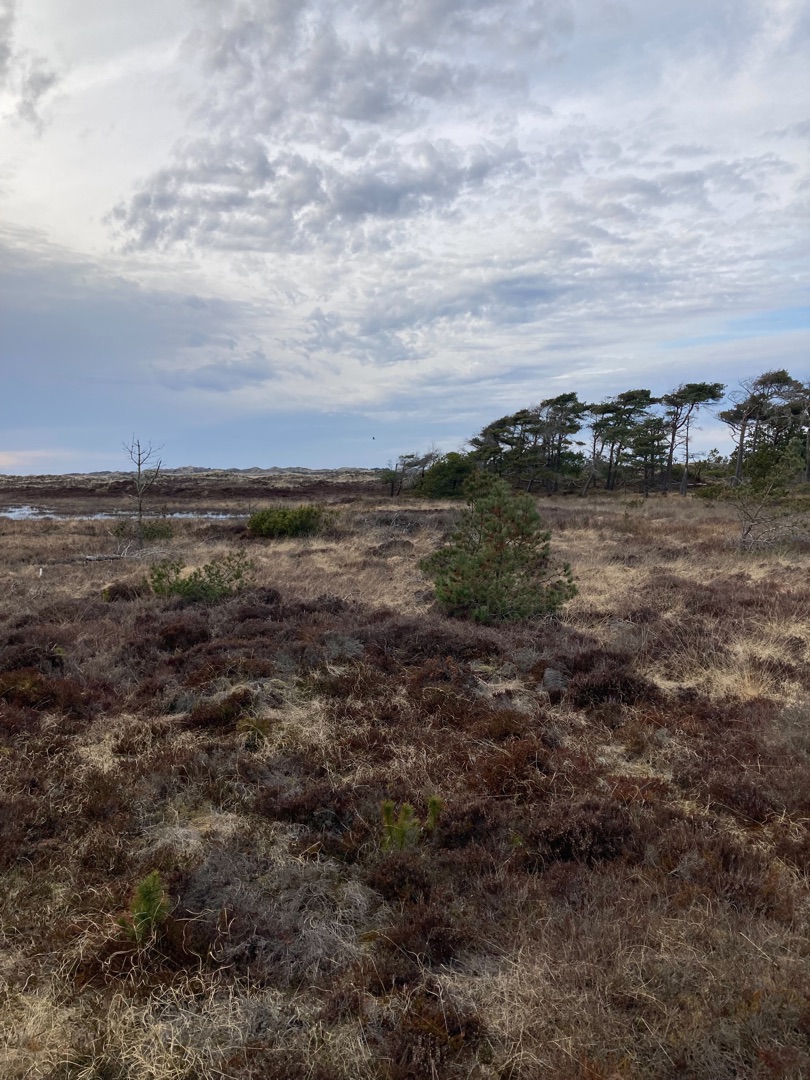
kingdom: Animalia
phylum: Chordata
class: Aves
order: Gruiformes
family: Gruidae
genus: Grus
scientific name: Grus grus
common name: Trane
